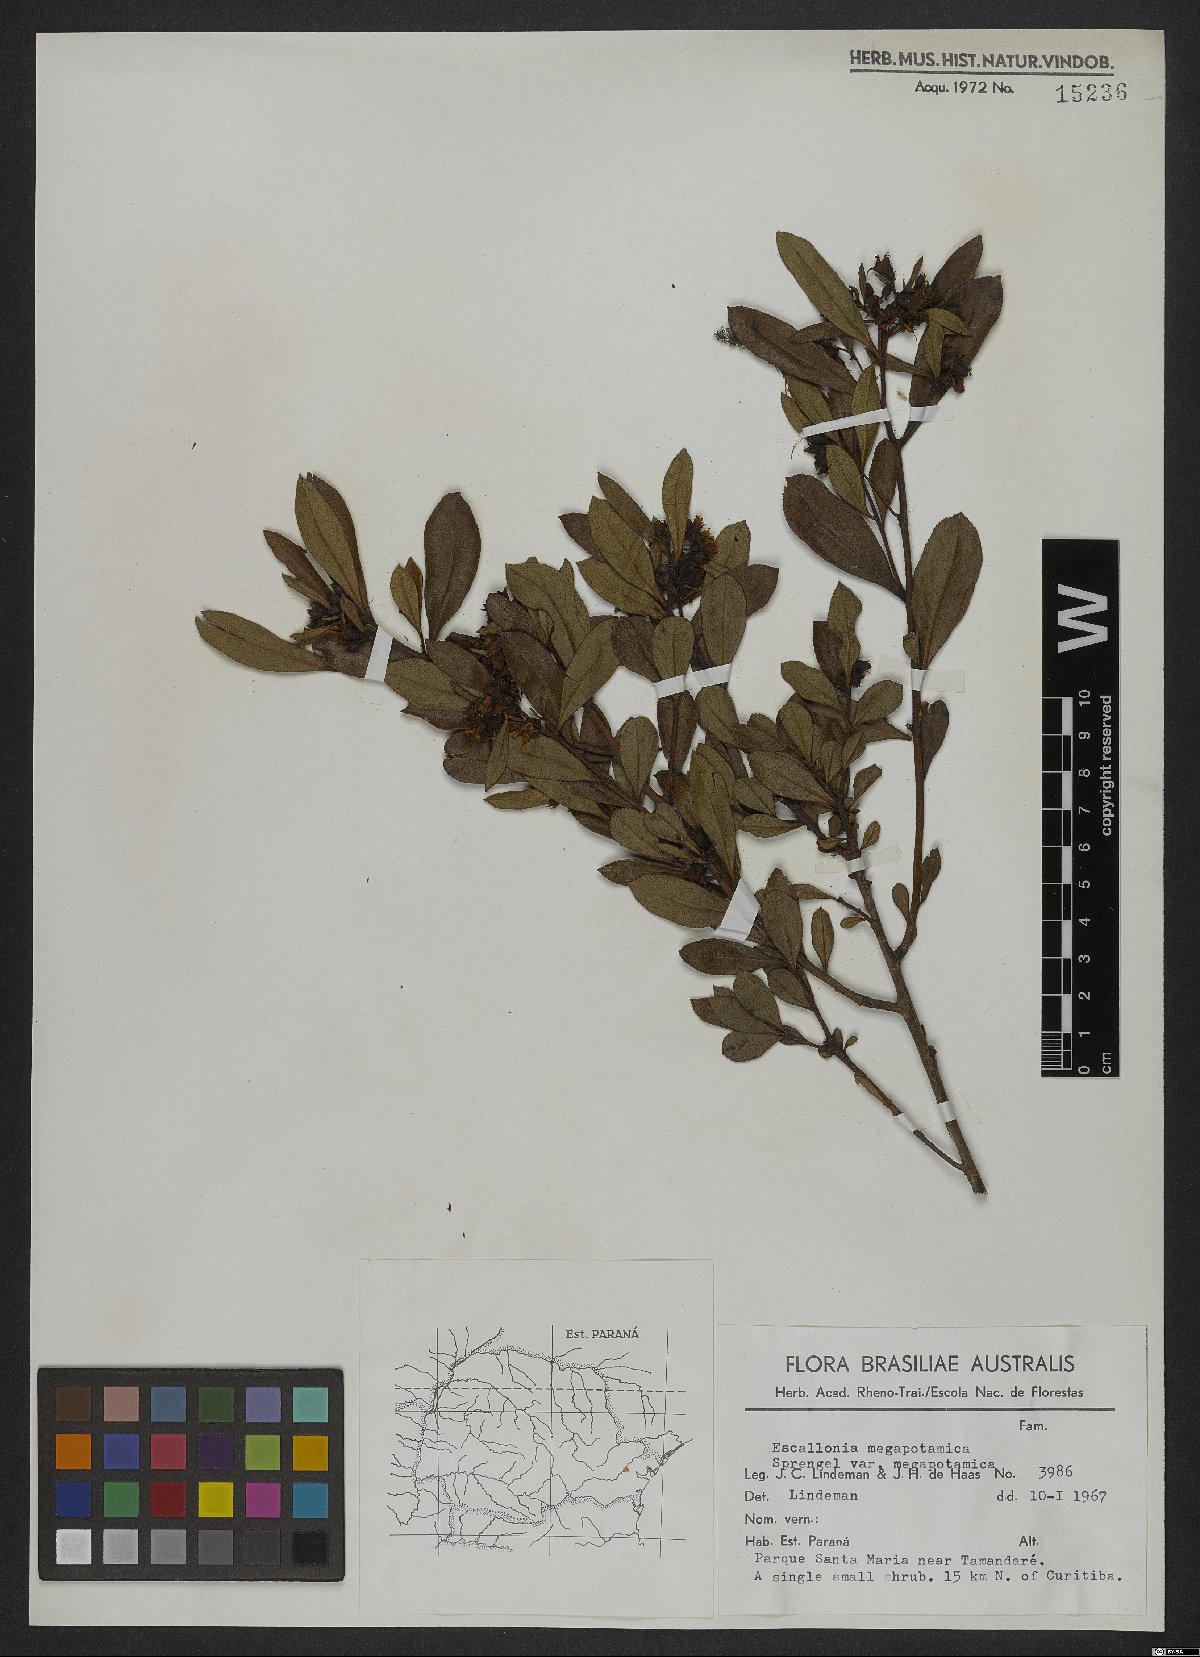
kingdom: Plantae
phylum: Tracheophyta
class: Magnoliopsida
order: Escalloniales
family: Escalloniaceae
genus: Escallonia
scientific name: Escallonia megapotamica
